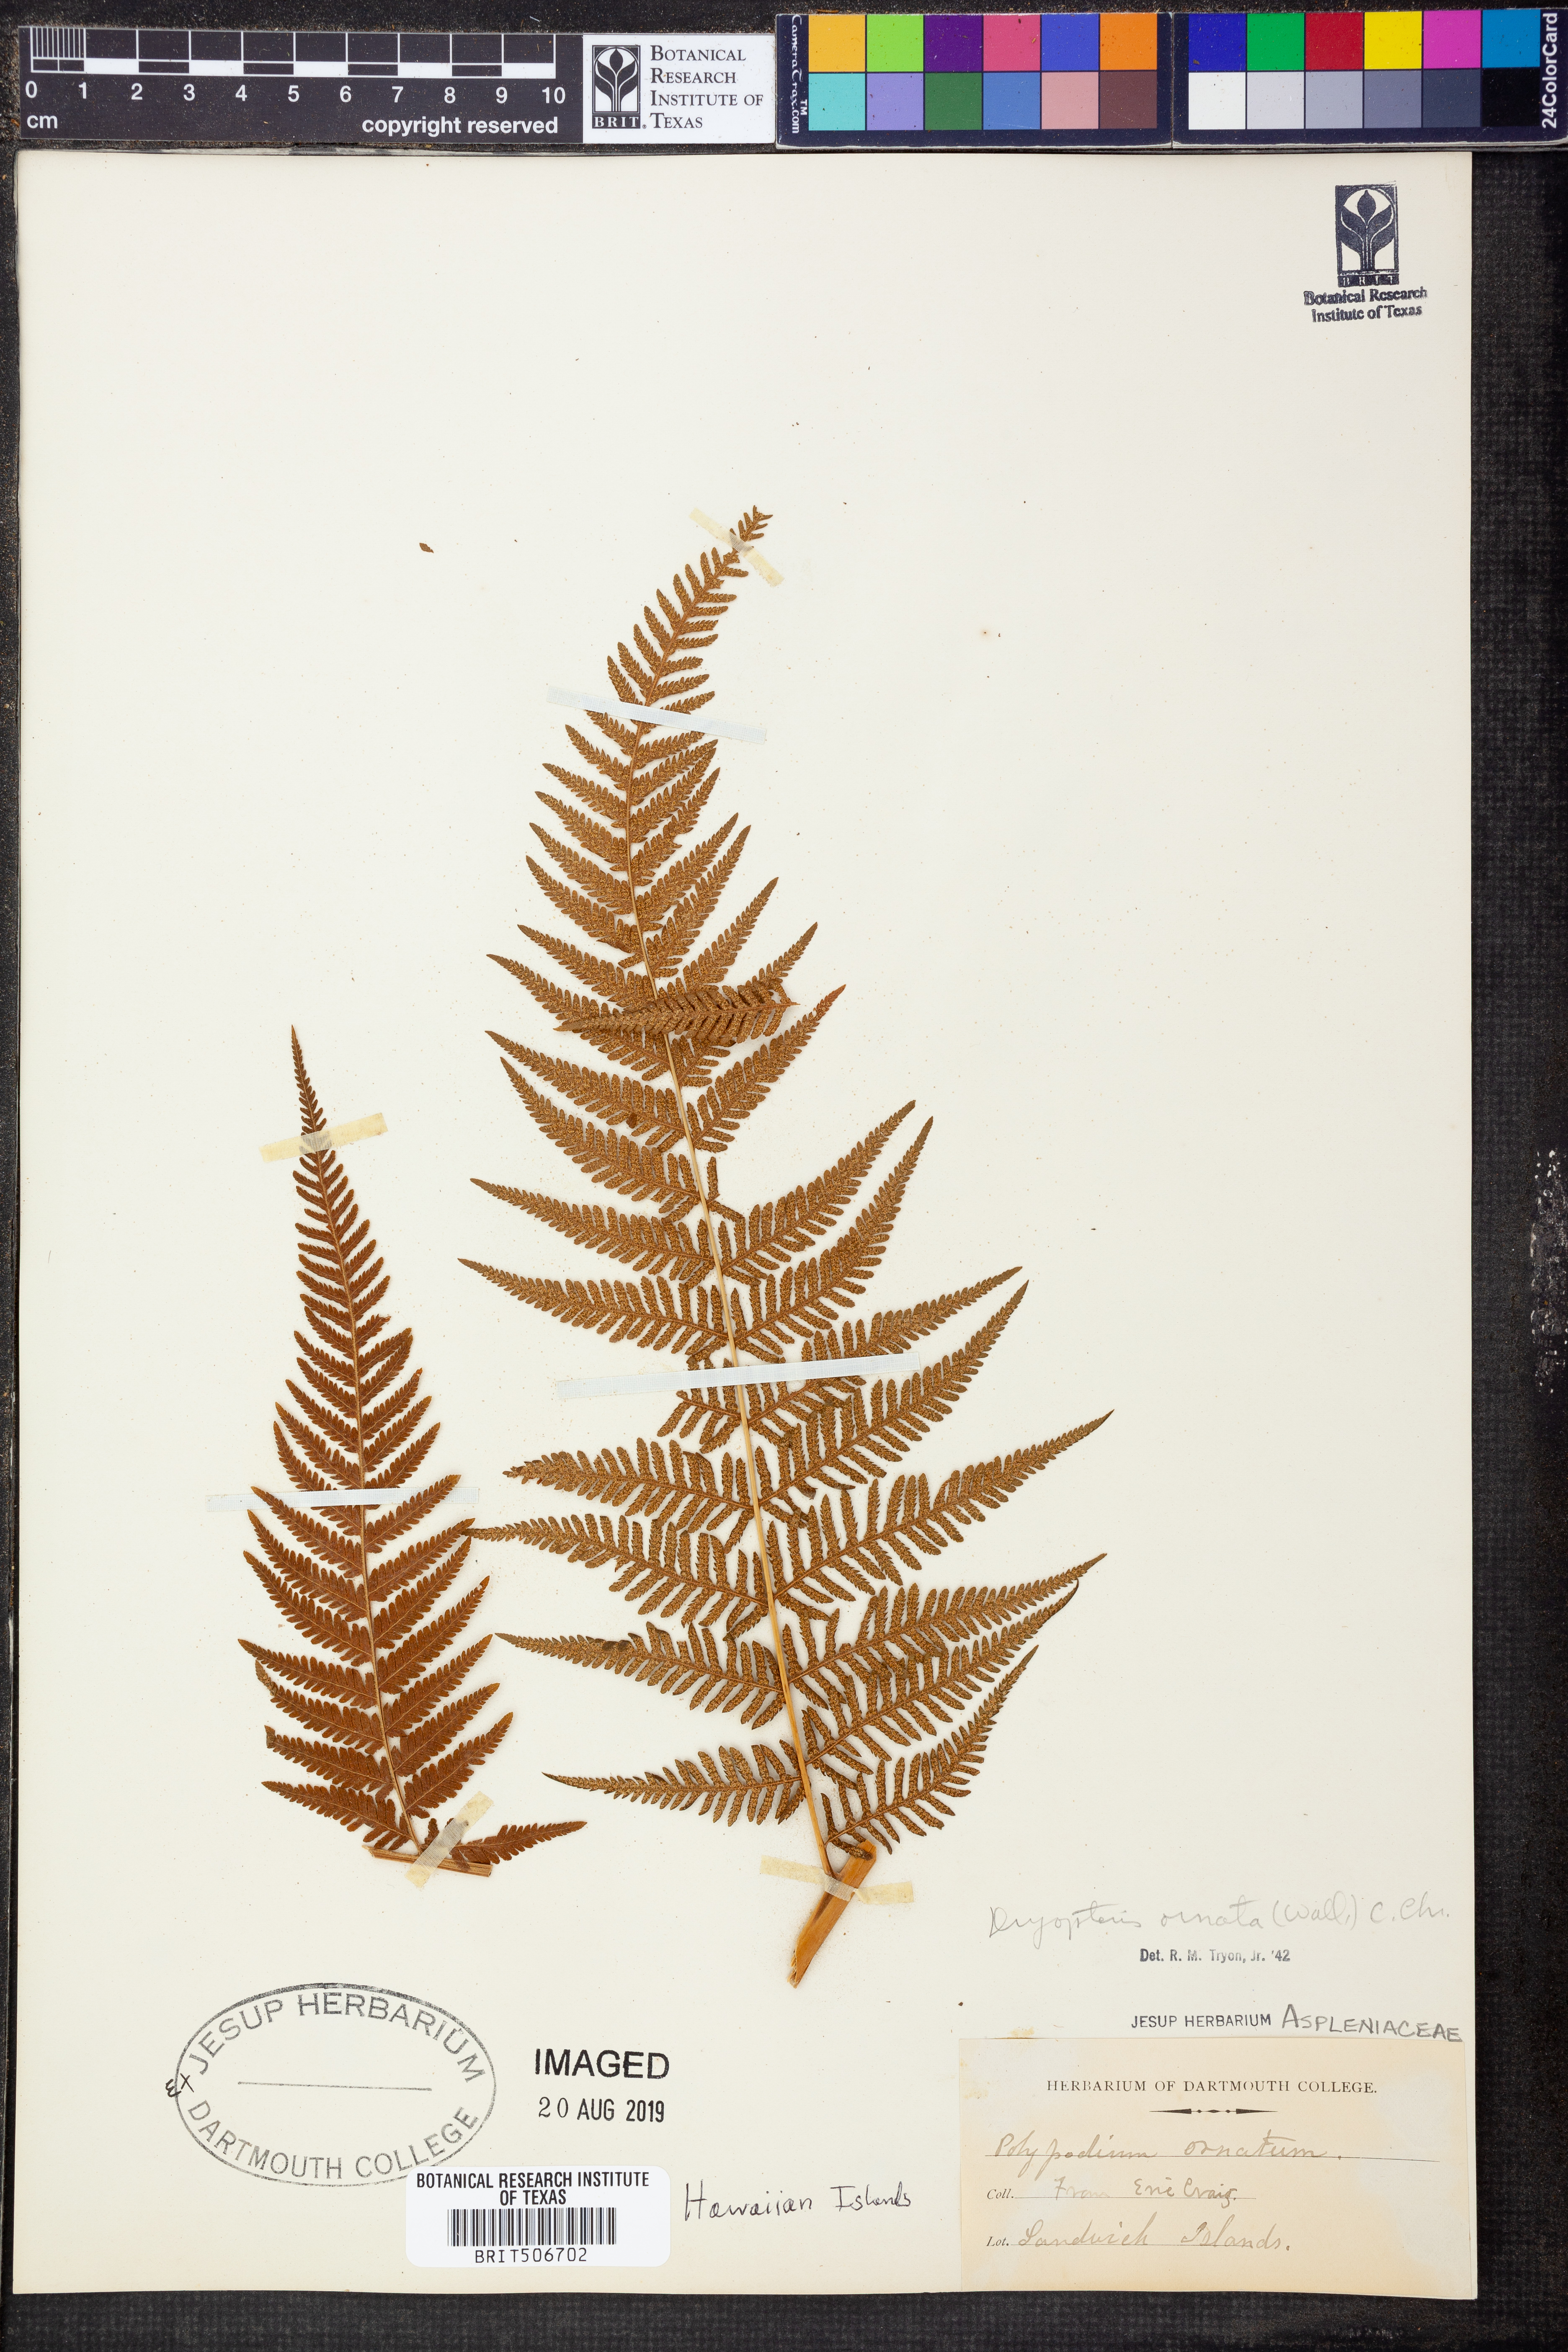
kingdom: Plantae
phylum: Tracheophyta
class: Polypodiopsida
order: Polypodiales
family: Thelypteridaceae
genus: Macrothelypteris
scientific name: Macrothelypteris ornata
